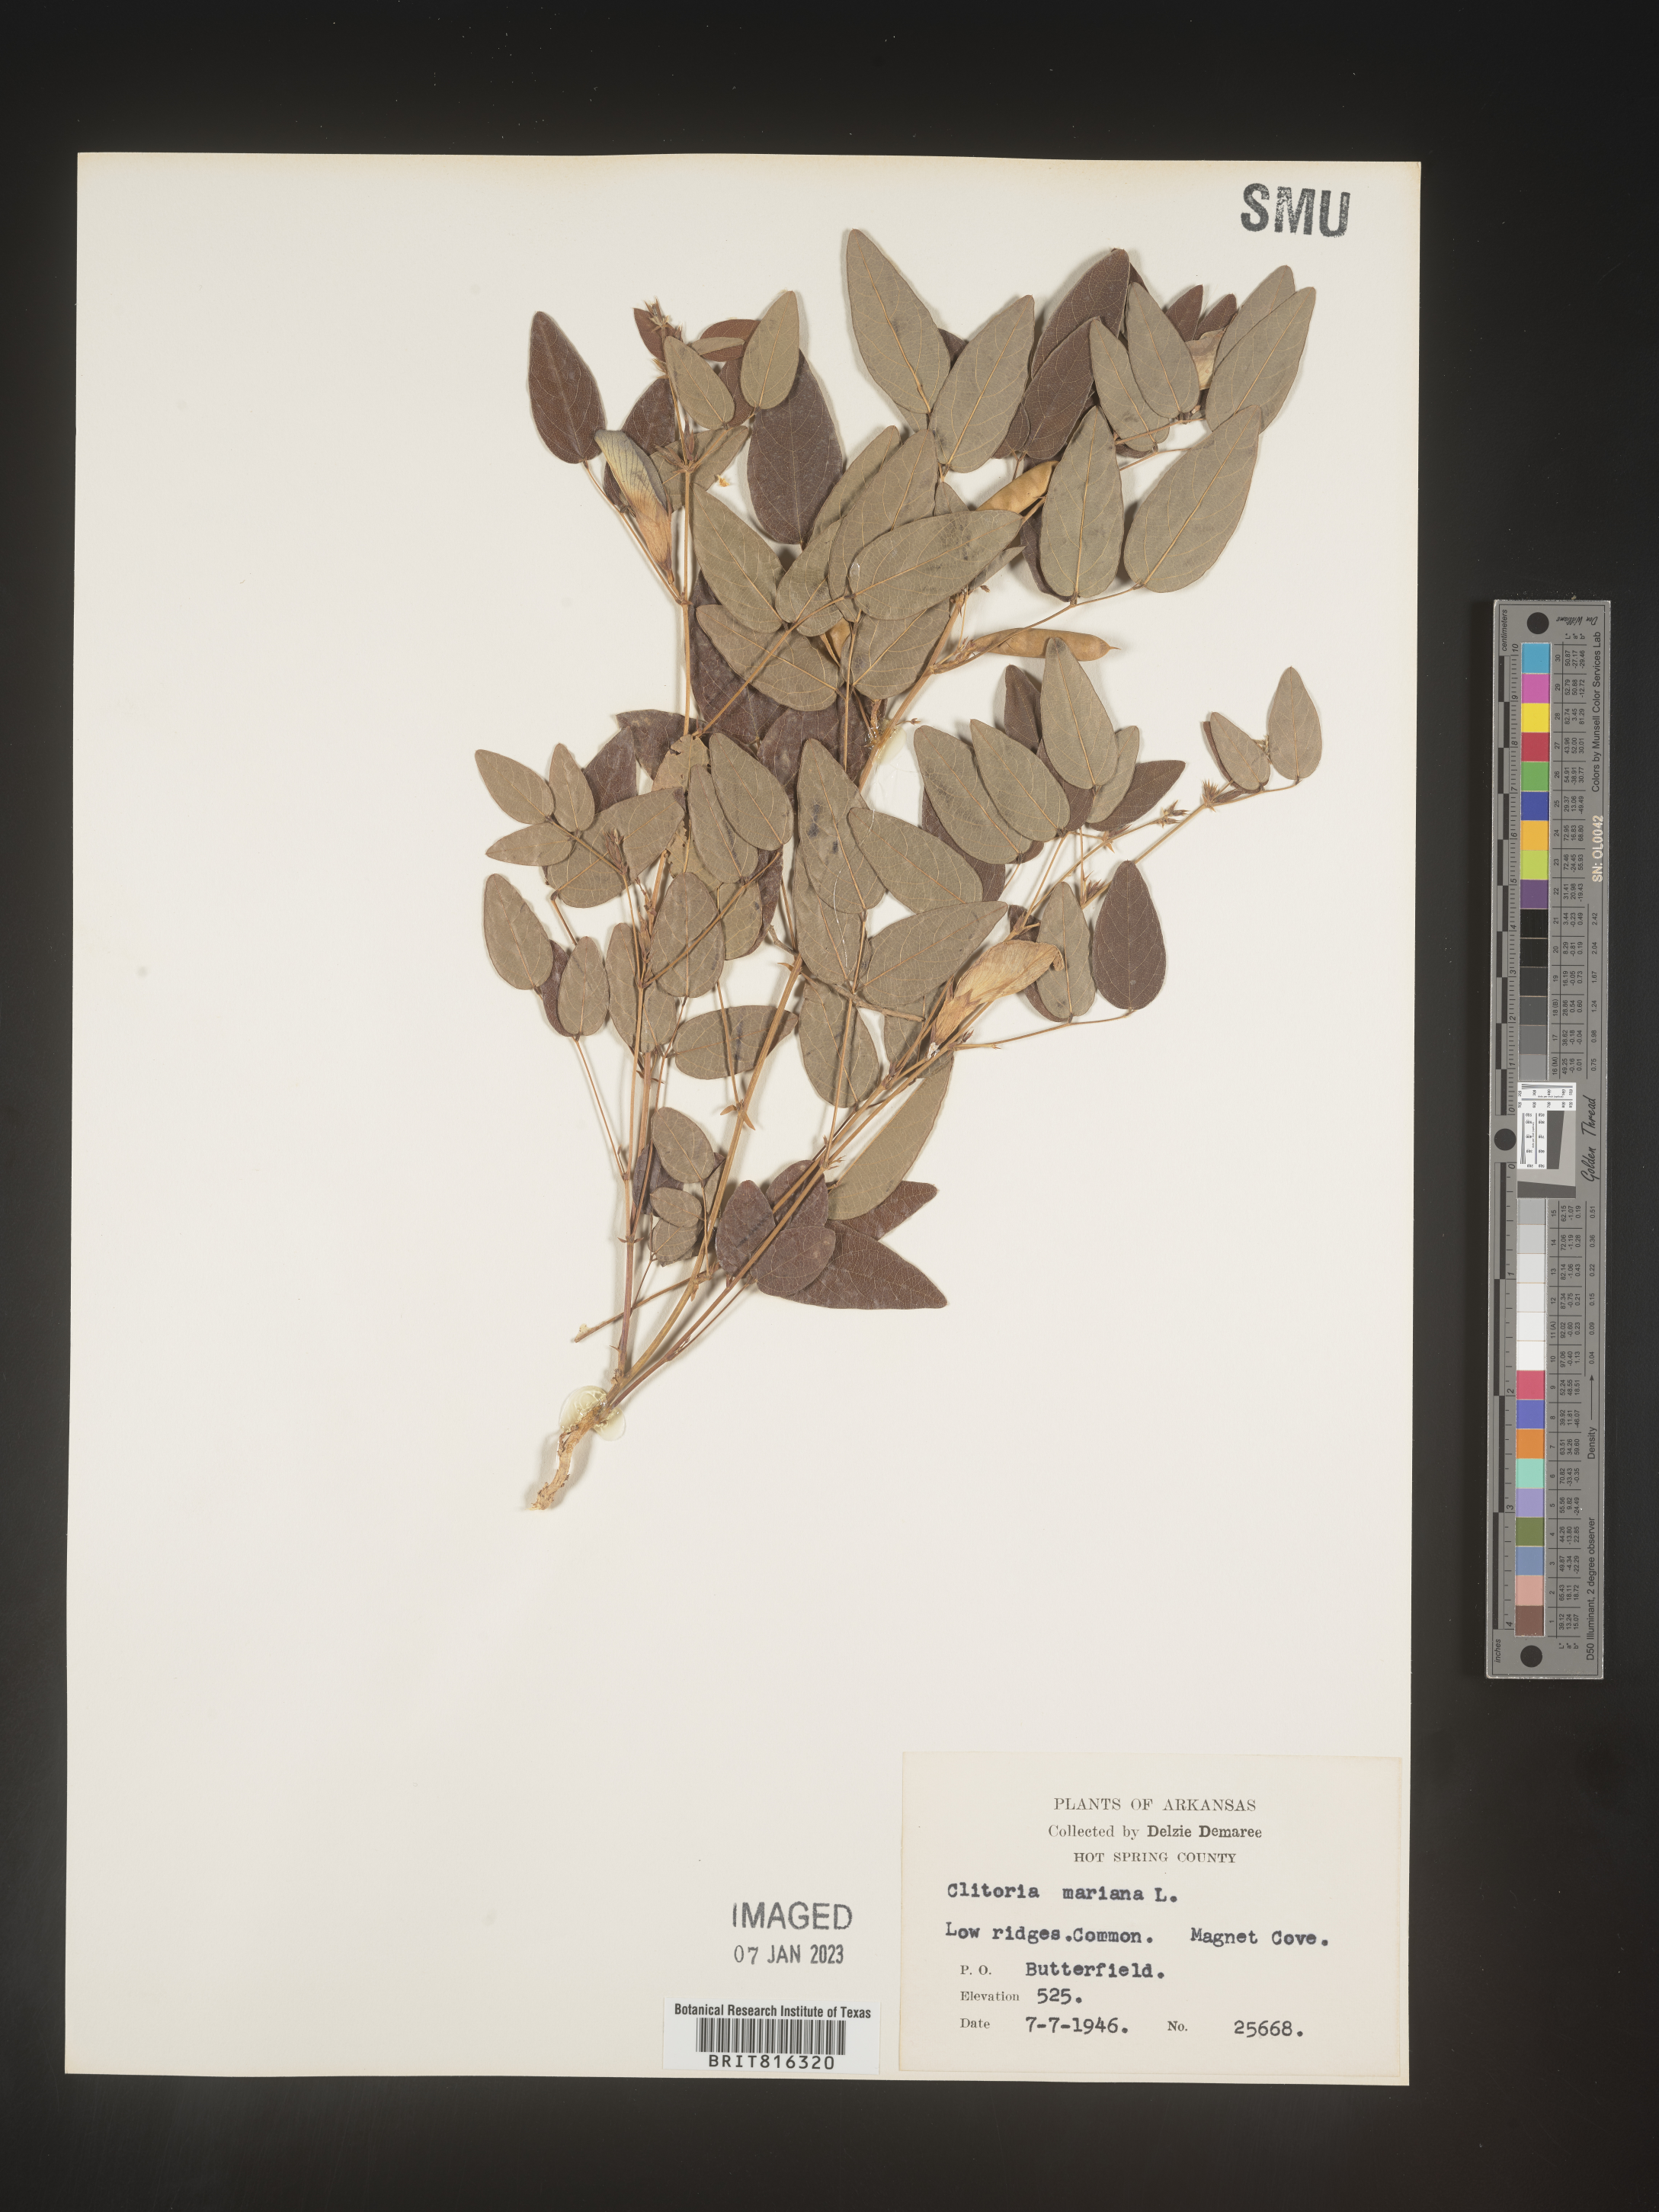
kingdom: Plantae
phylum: Tracheophyta
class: Magnoliopsida
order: Fabales
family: Fabaceae
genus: Clitoria
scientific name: Clitoria mariana
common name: Butterfly-pea
